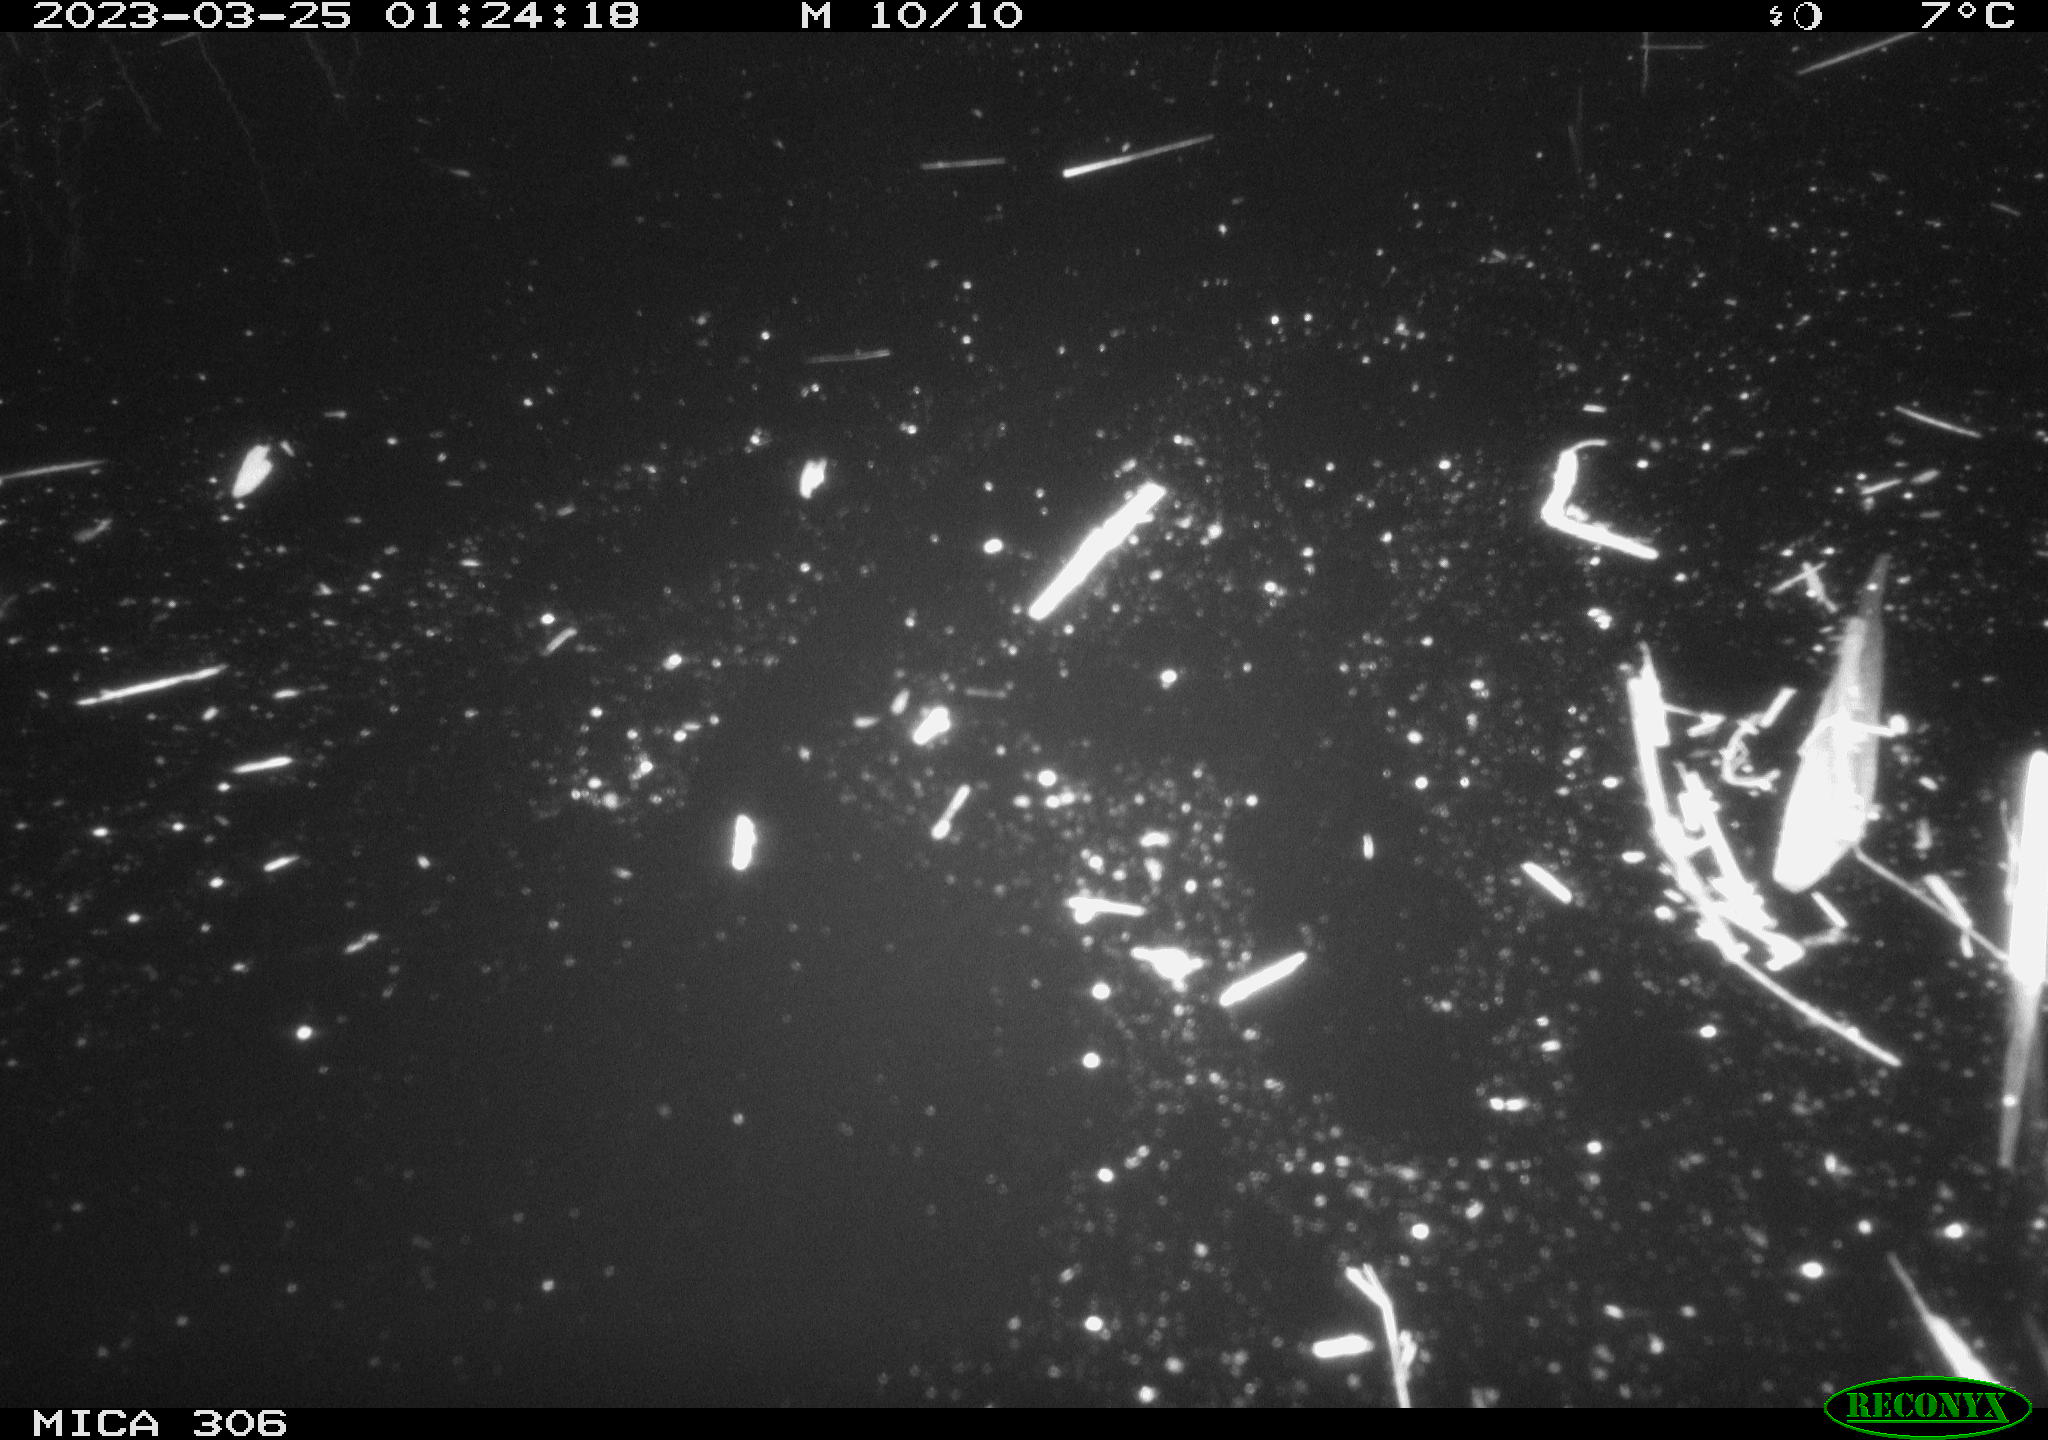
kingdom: Animalia
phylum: Chordata
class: Aves
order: Anseriformes
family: Anatidae
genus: Anas
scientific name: Anas
